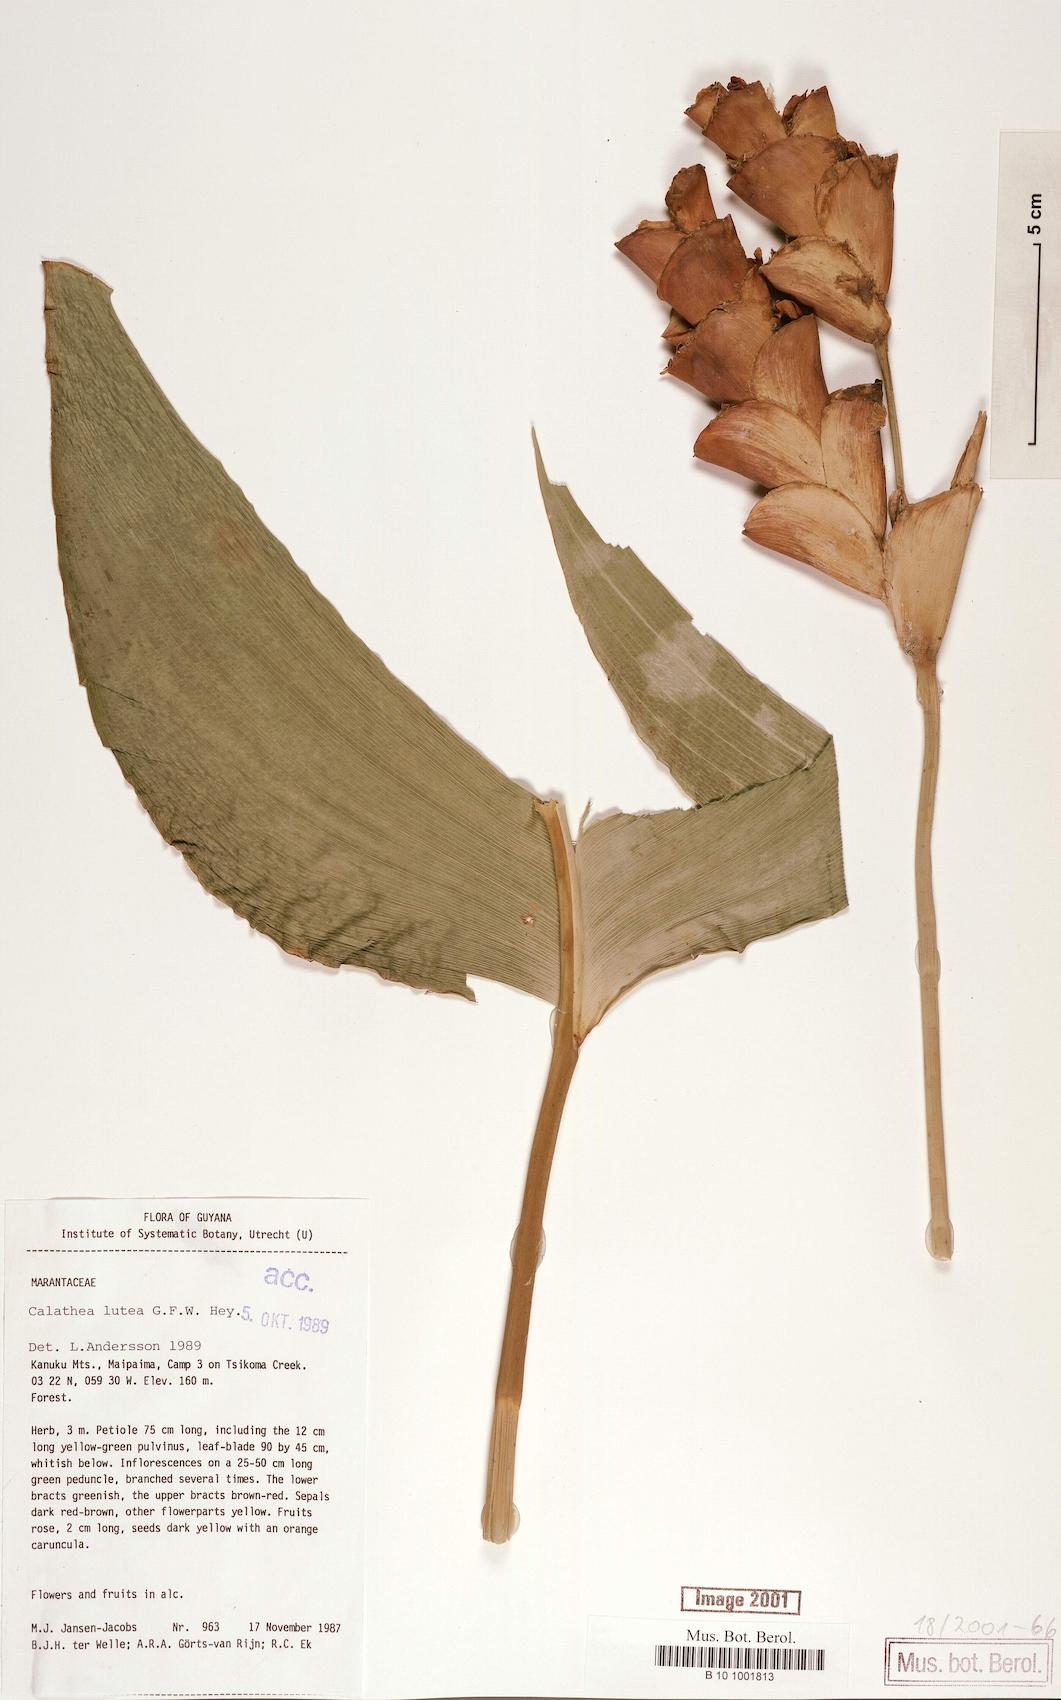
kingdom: Plantae
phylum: Tracheophyta
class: Liliopsida
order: Zingiberales
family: Marantaceae
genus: Calathea
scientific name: Calathea lutea
